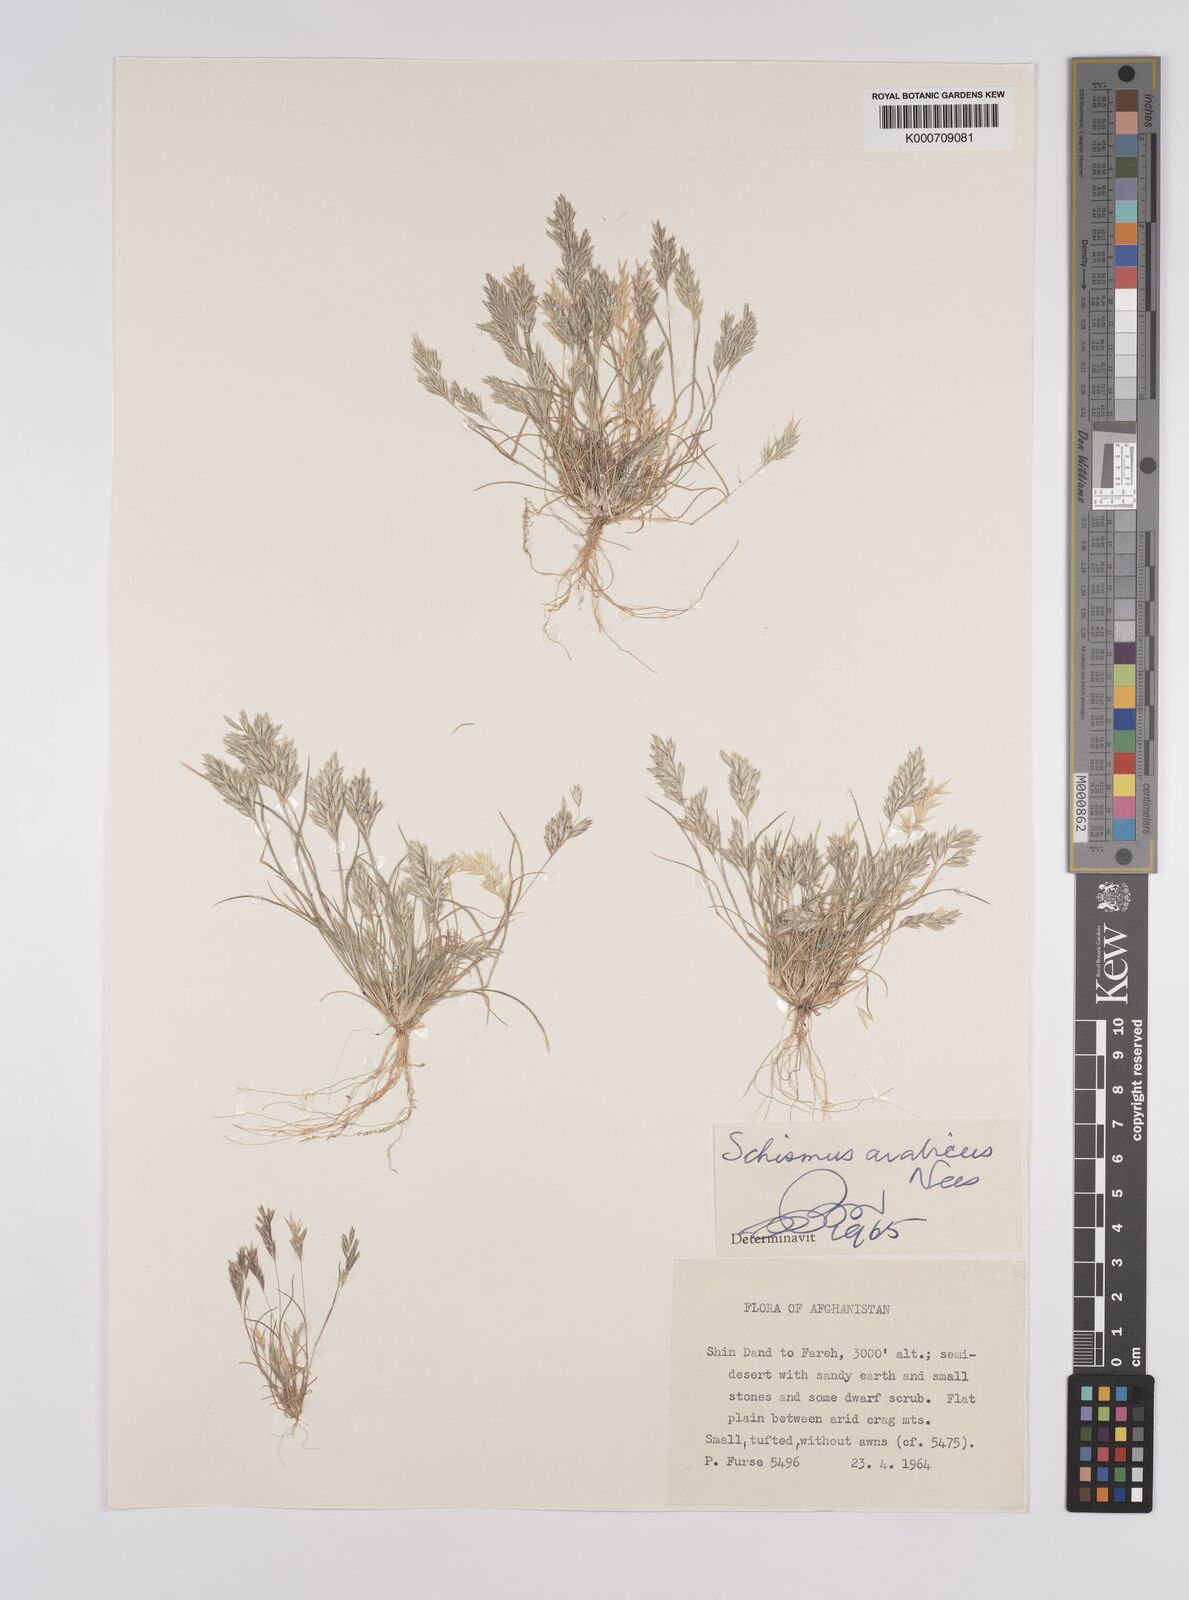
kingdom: Plantae
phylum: Tracheophyta
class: Liliopsida
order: Poales
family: Poaceae
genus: Schismus
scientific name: Schismus arabicus
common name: Arabian schismus
